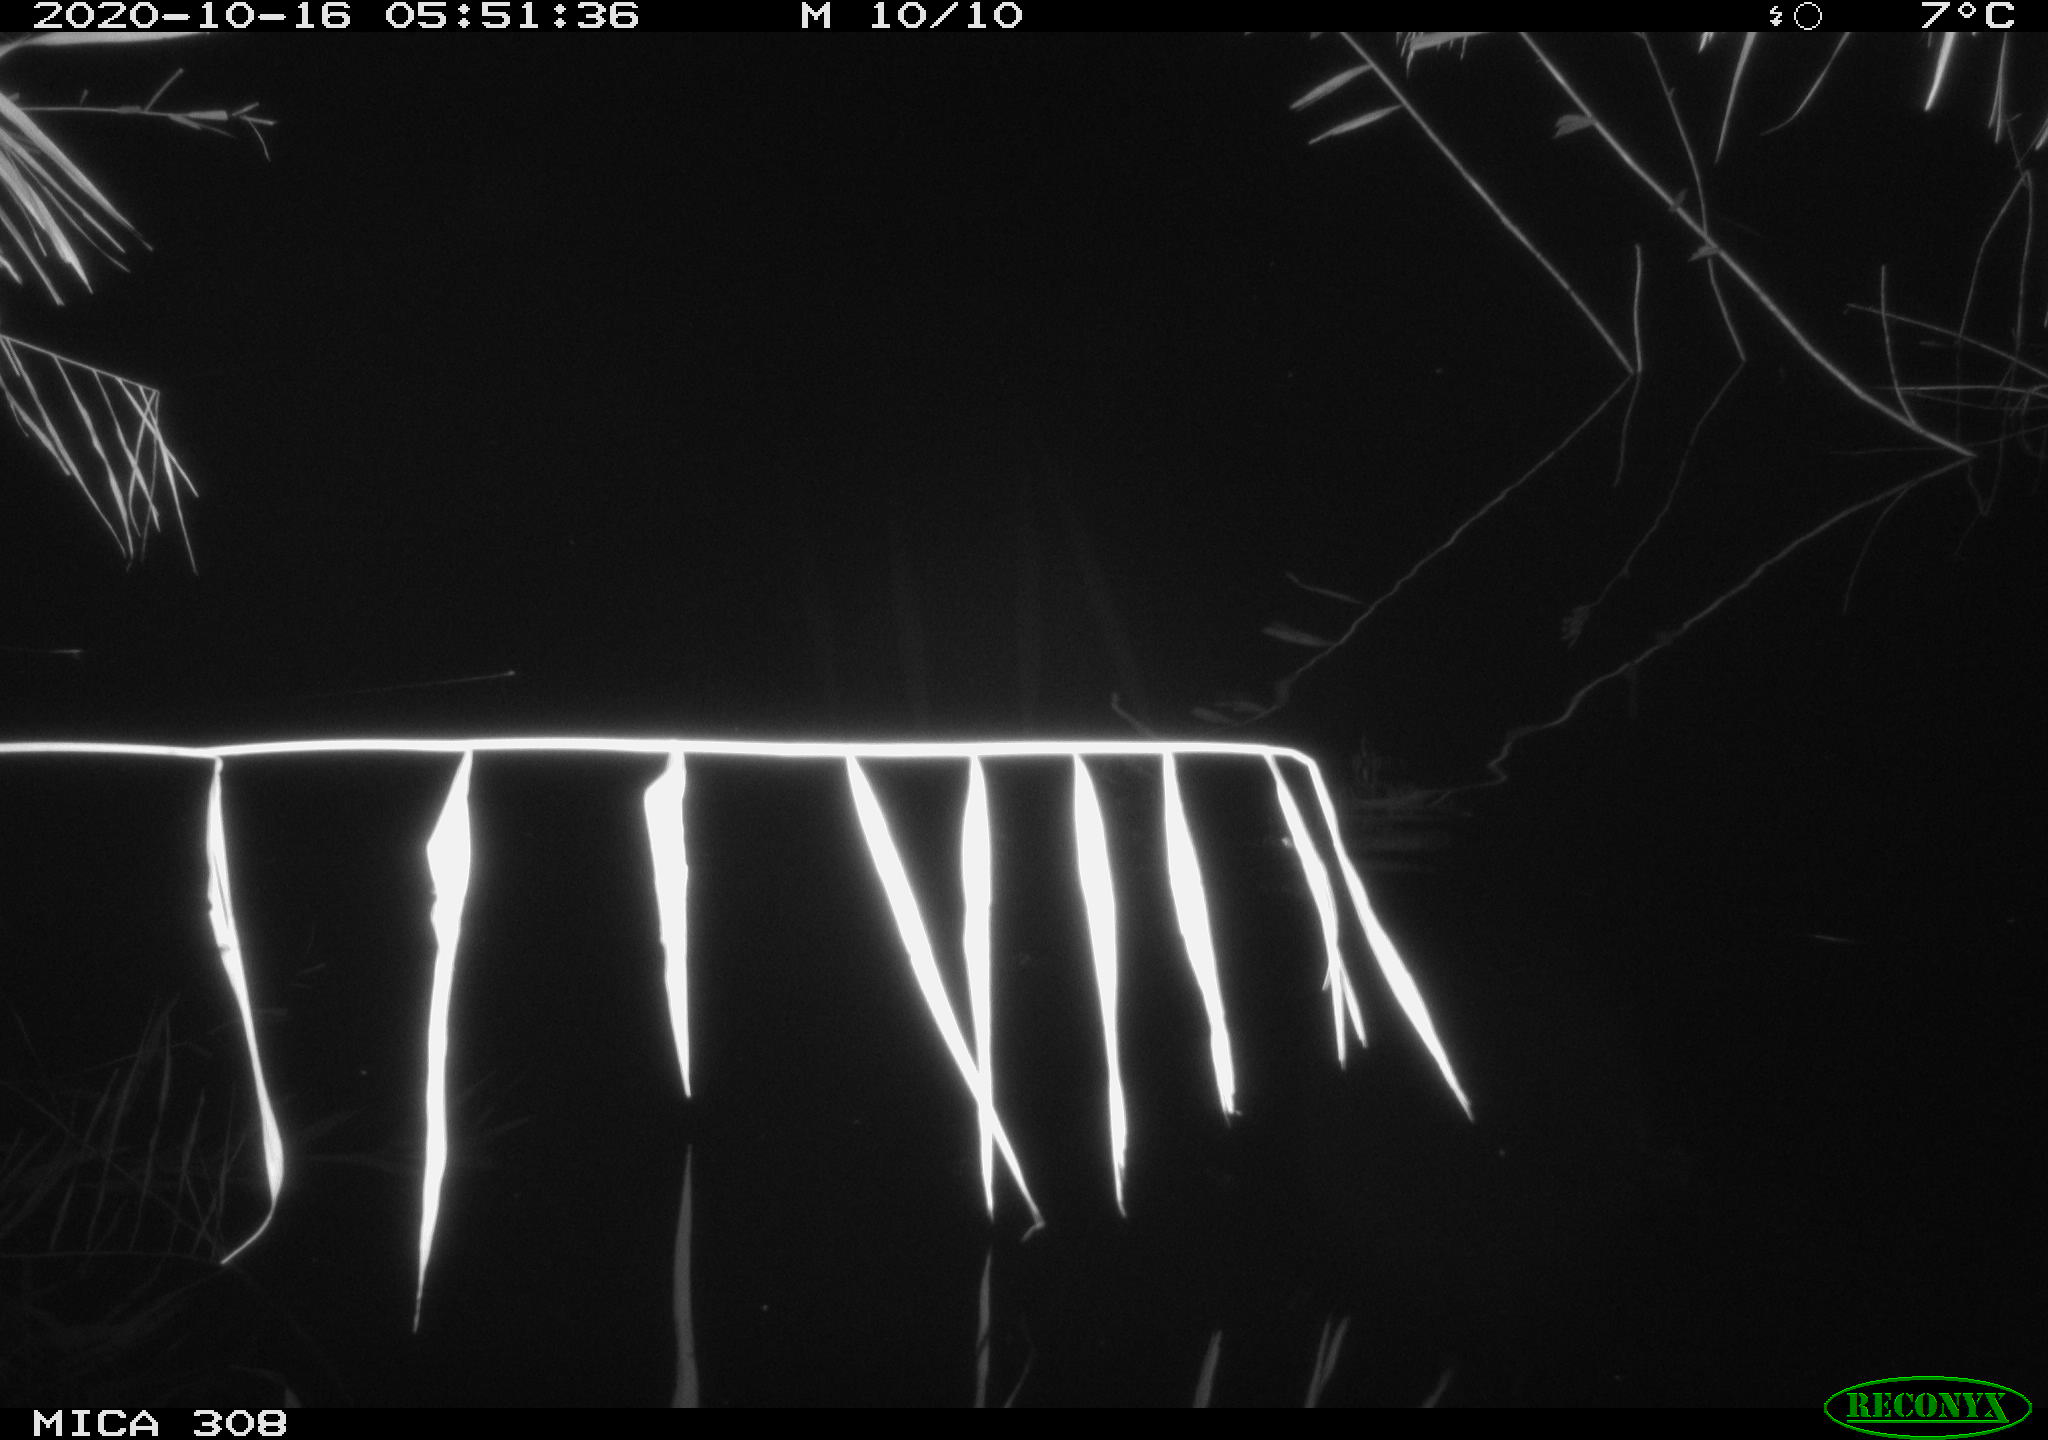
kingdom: Animalia
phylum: Chordata
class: Aves
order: Anseriformes
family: Anatidae
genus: Anas
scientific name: Anas platyrhynchos
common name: Mallard
